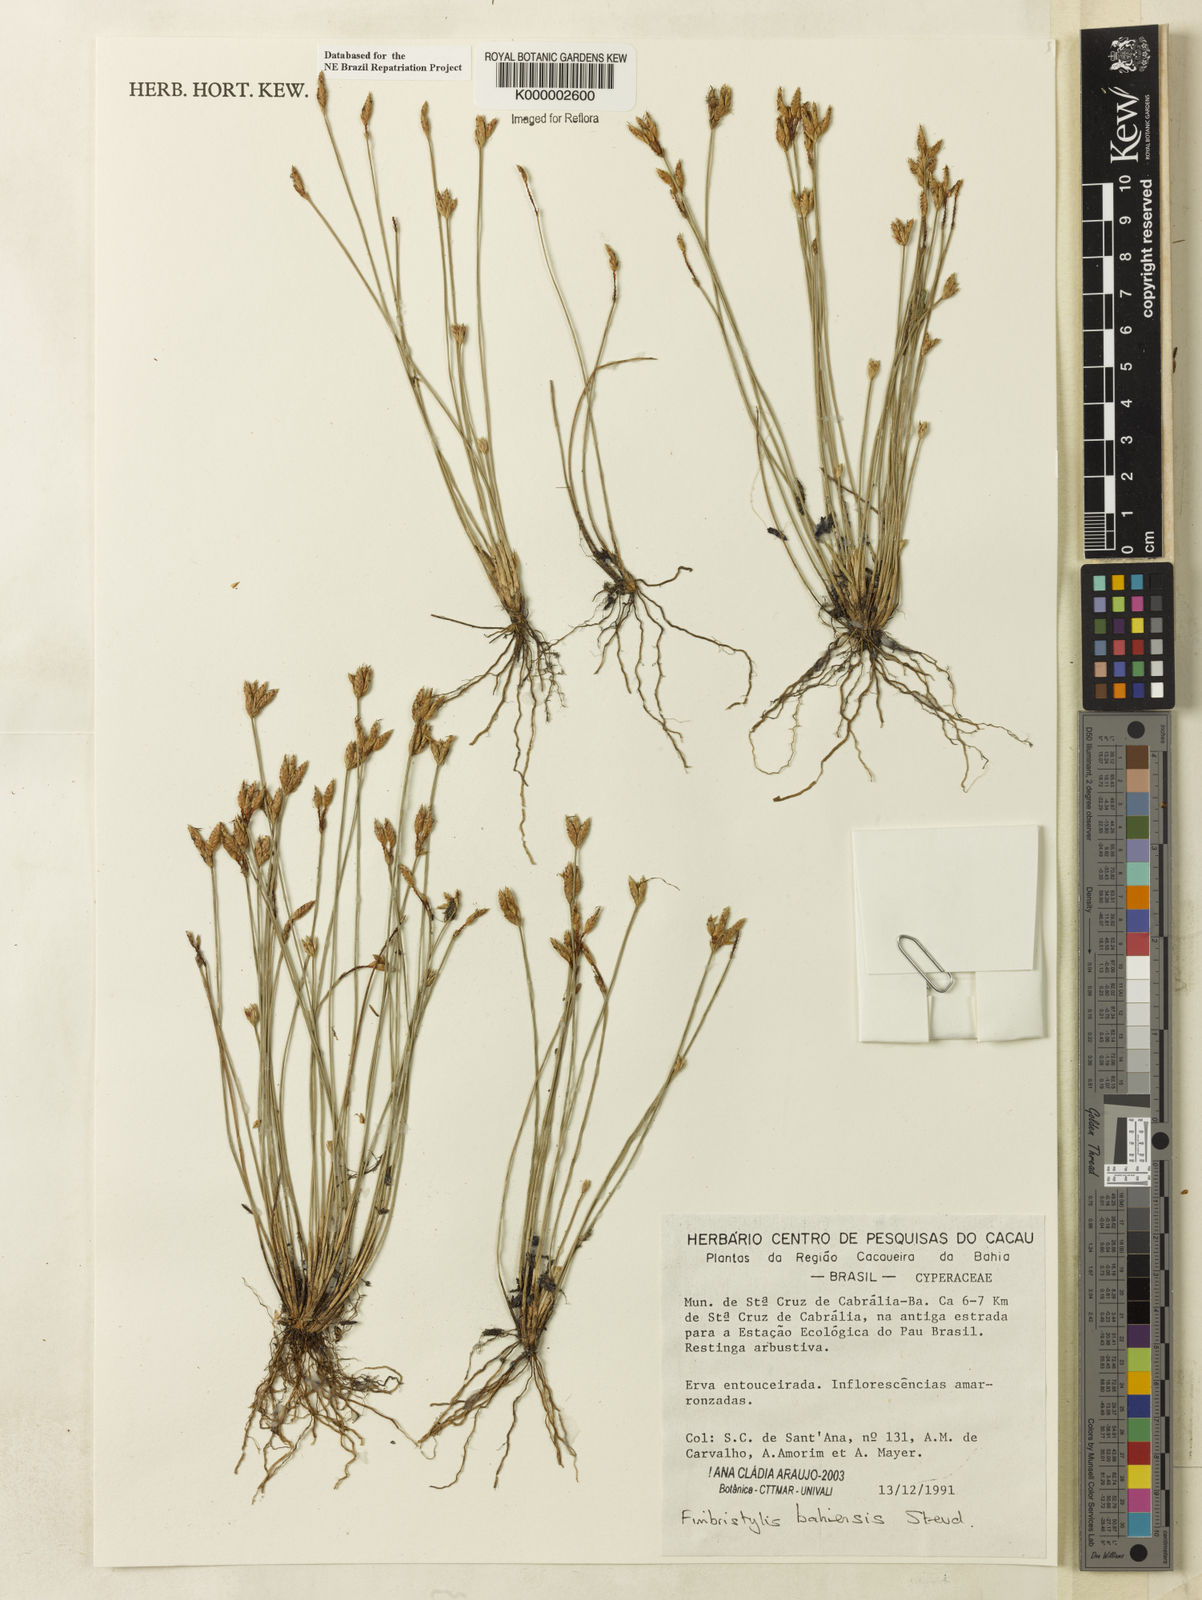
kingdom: Plantae
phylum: Tracheophyta
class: Liliopsida
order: Poales
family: Cyperaceae
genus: Fimbristylis
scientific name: Fimbristylis bahiensis
